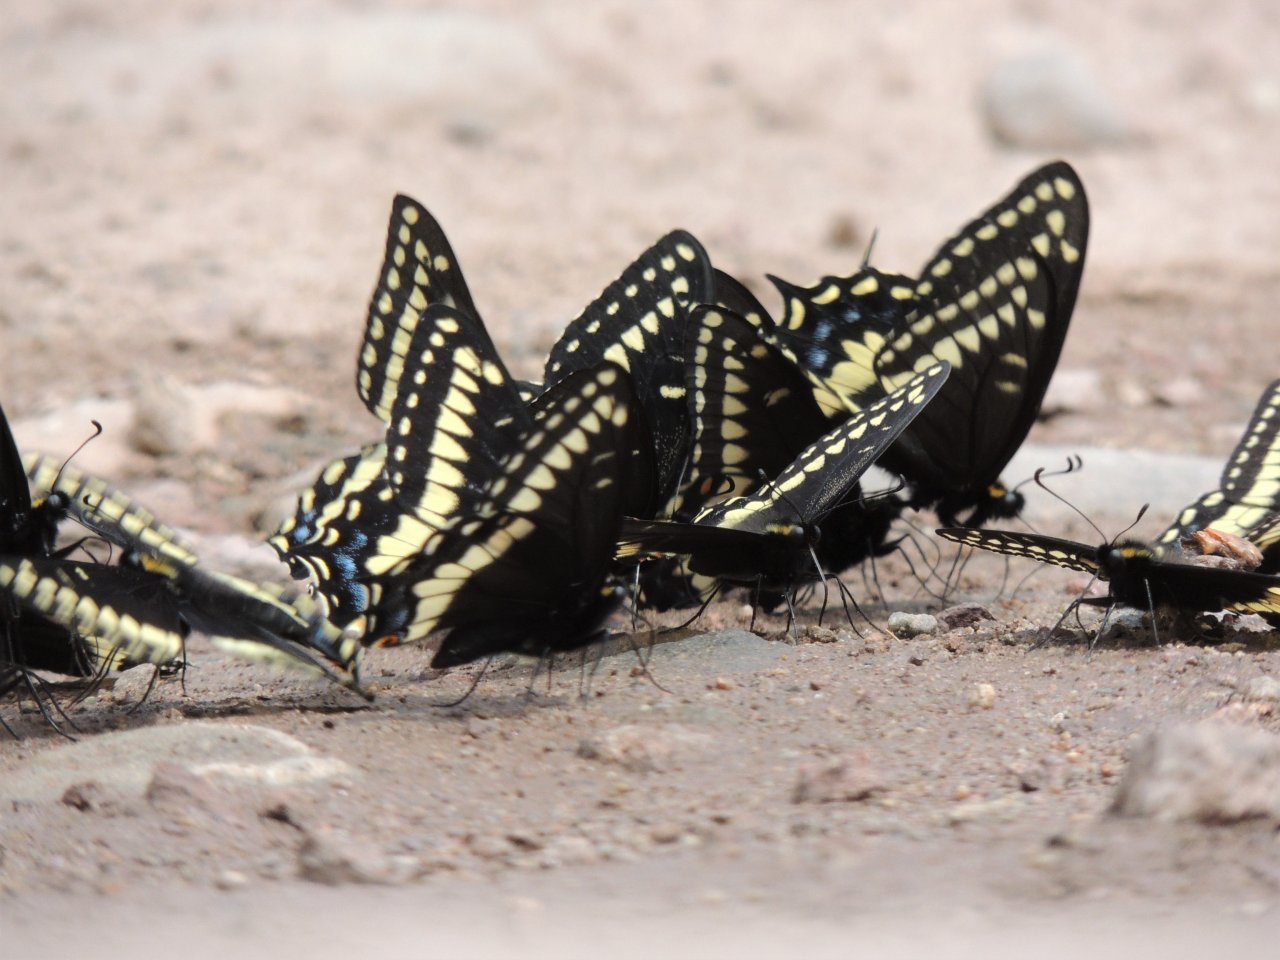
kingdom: Animalia
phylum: Arthropoda
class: Insecta
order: Lepidoptera
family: Papilionidae
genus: Papilio
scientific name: Papilio indra
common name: Indra Swallowtail
